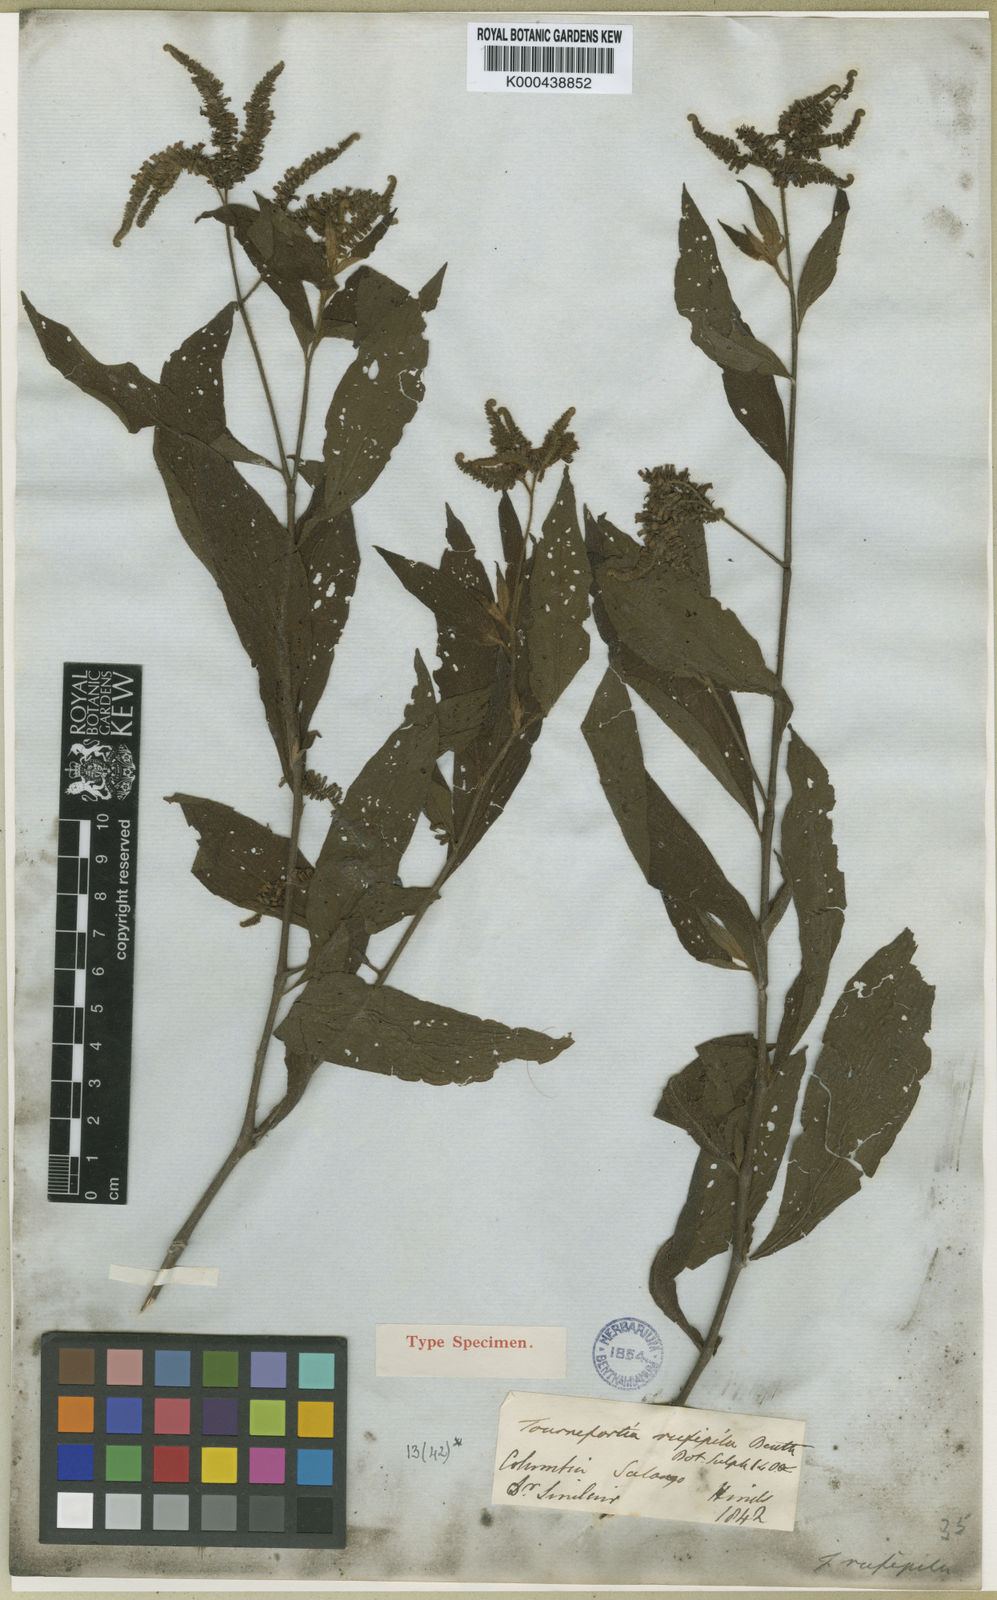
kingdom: Plantae
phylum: Tracheophyta
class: Magnoliopsida
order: Boraginales
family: Heliotropiaceae
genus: Heliotropium
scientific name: Heliotropium rufipilum
